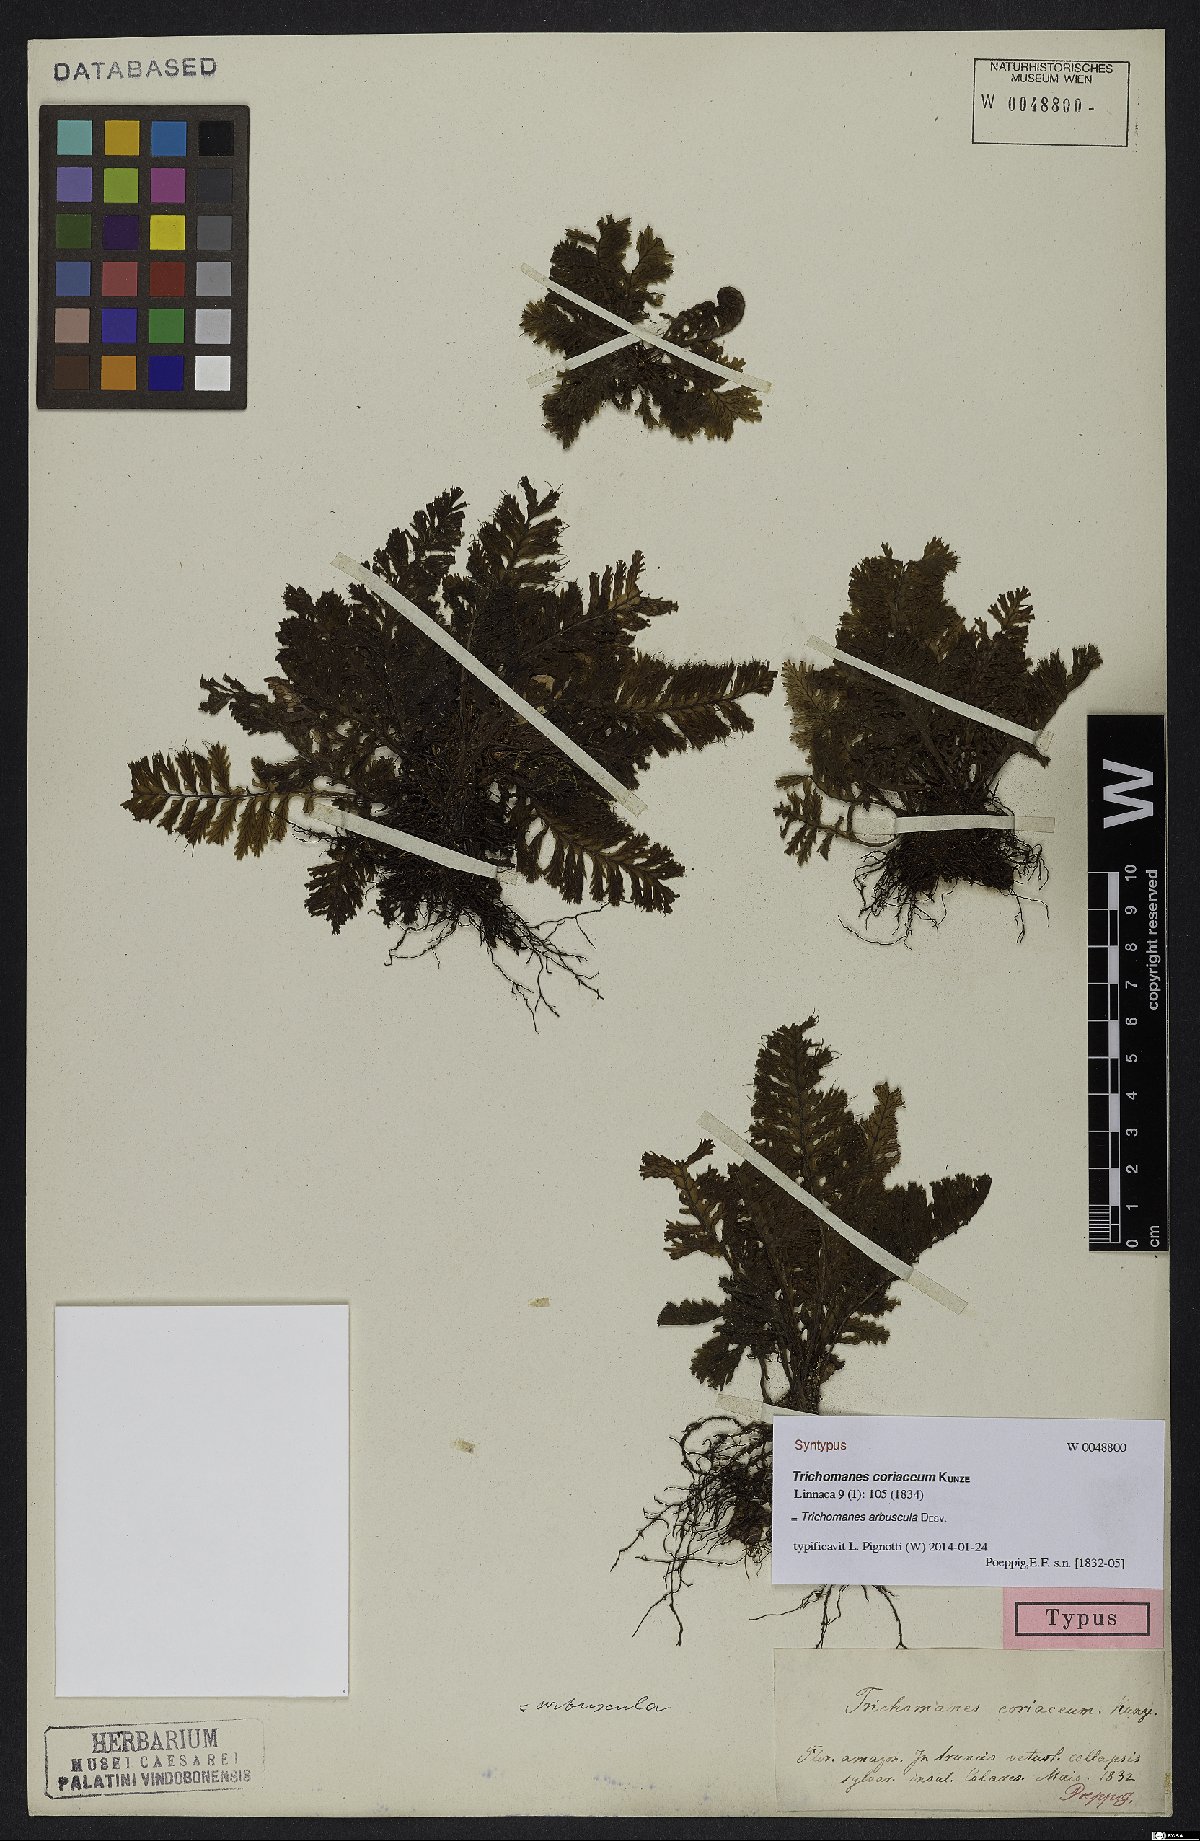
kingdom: Plantae
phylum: Tracheophyta
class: Polypodiopsida
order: Hymenophyllales
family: Hymenophyllaceae
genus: Trichomanes
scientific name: Trichomanes arbuscula
